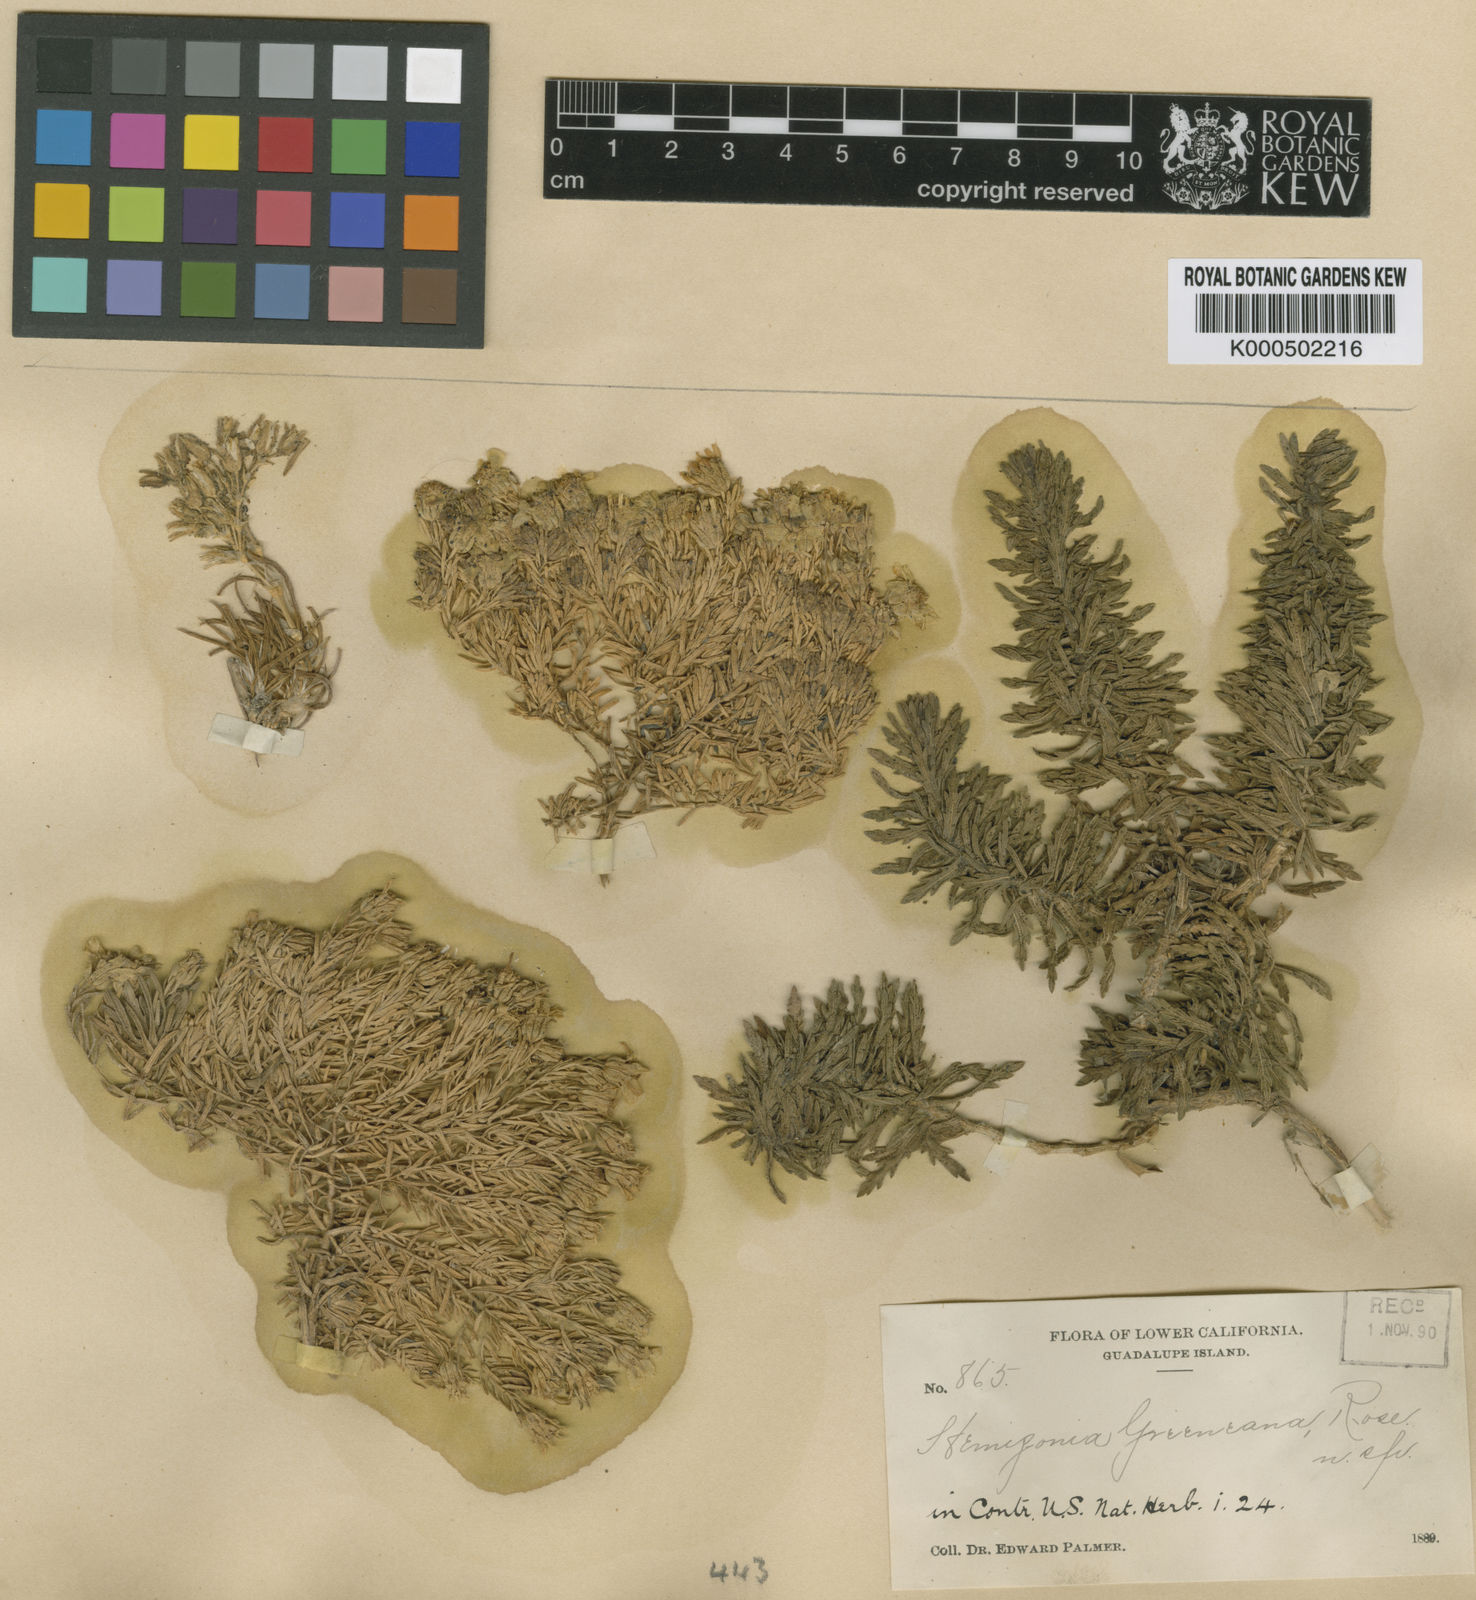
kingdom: Plantae
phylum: Tracheophyta
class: Magnoliopsida
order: Asterales
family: Asteraceae
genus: Deinandra
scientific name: Deinandra greeneana
